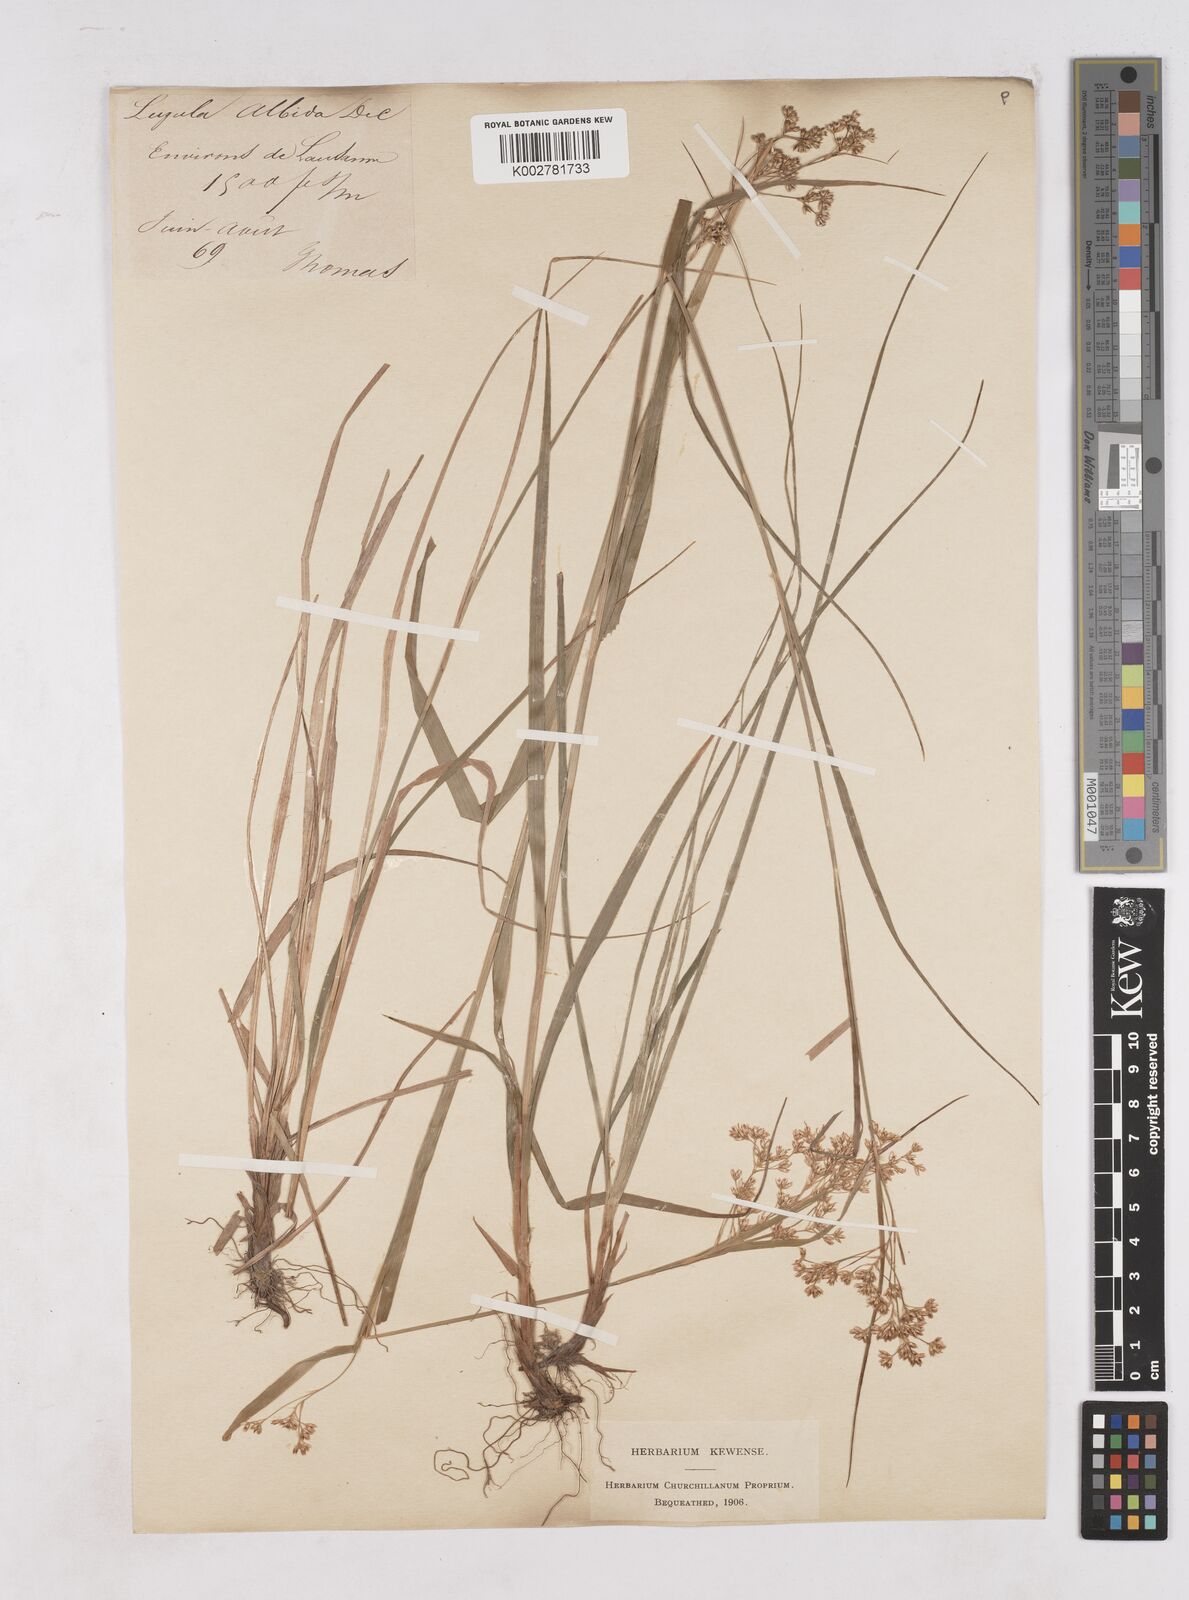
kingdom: Plantae
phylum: Tracheophyta
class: Liliopsida
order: Poales
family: Juncaceae
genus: Luzula
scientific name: Luzula luzuloides
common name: White wood-rush
